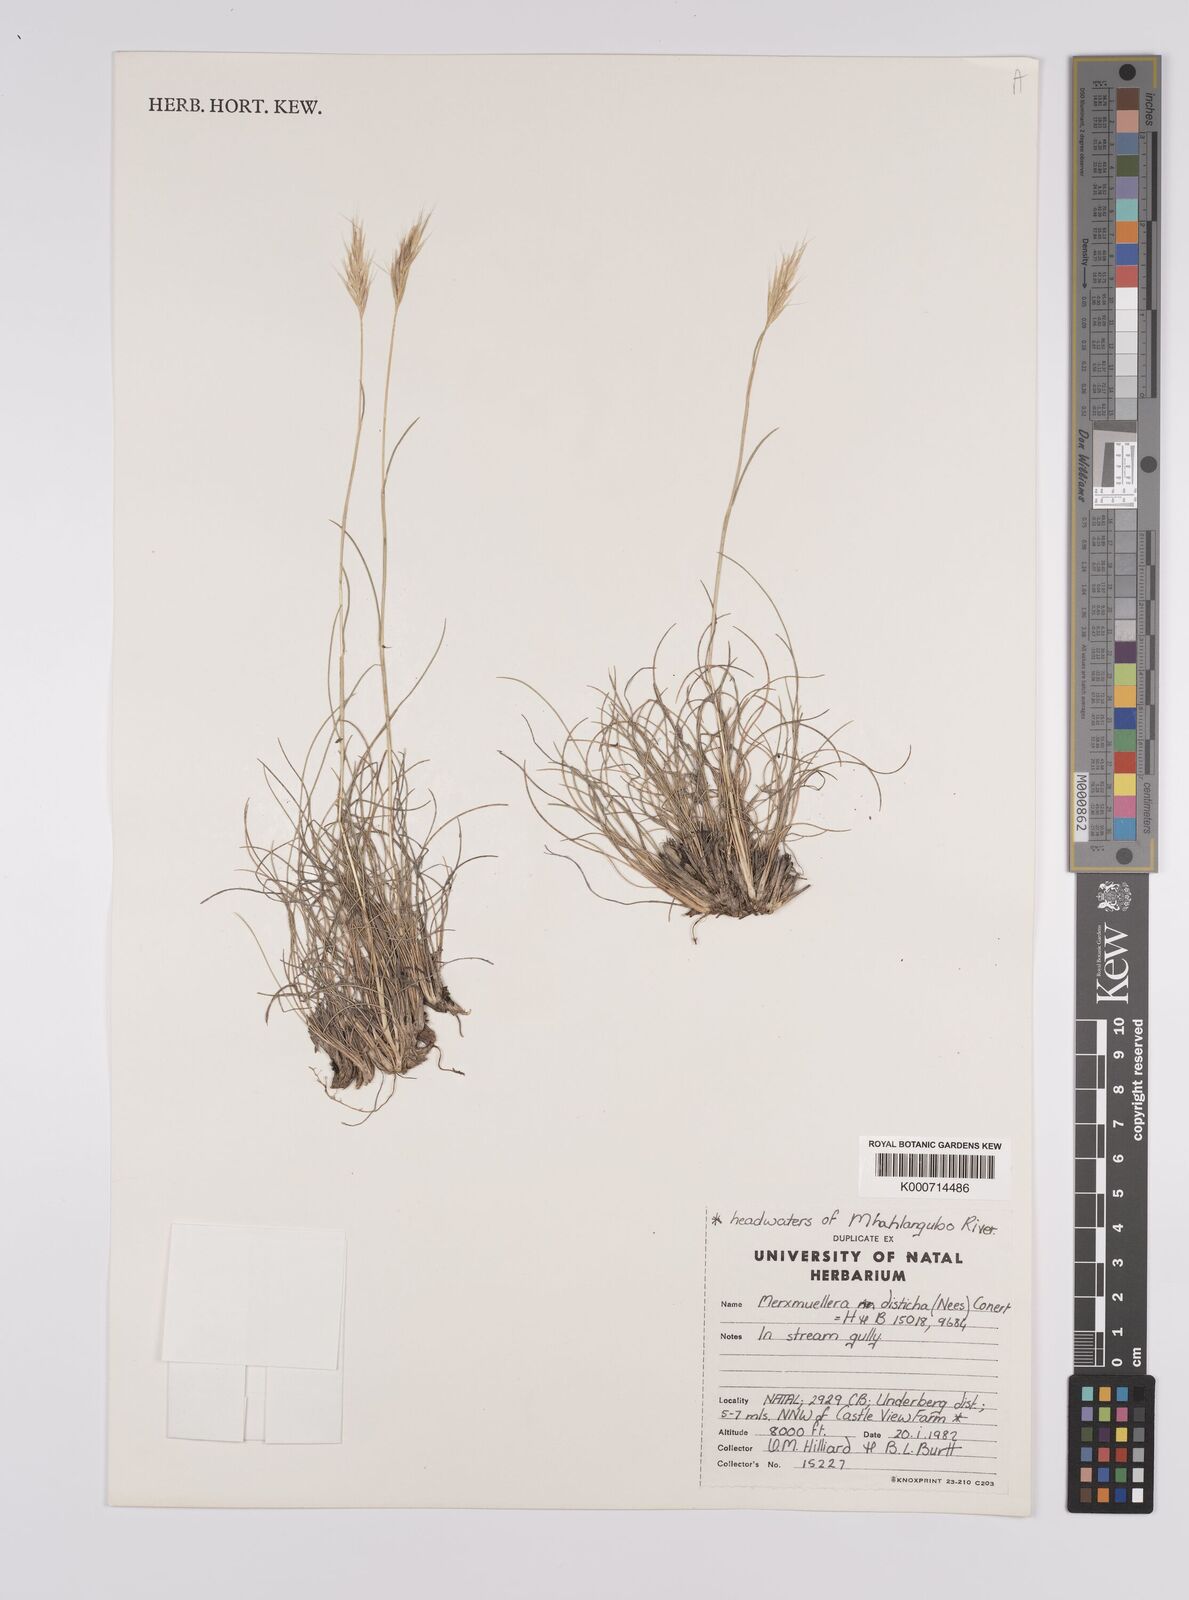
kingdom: Plantae
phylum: Tracheophyta
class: Liliopsida
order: Poales
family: Poaceae
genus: Tenaxia
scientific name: Tenaxia disticha
